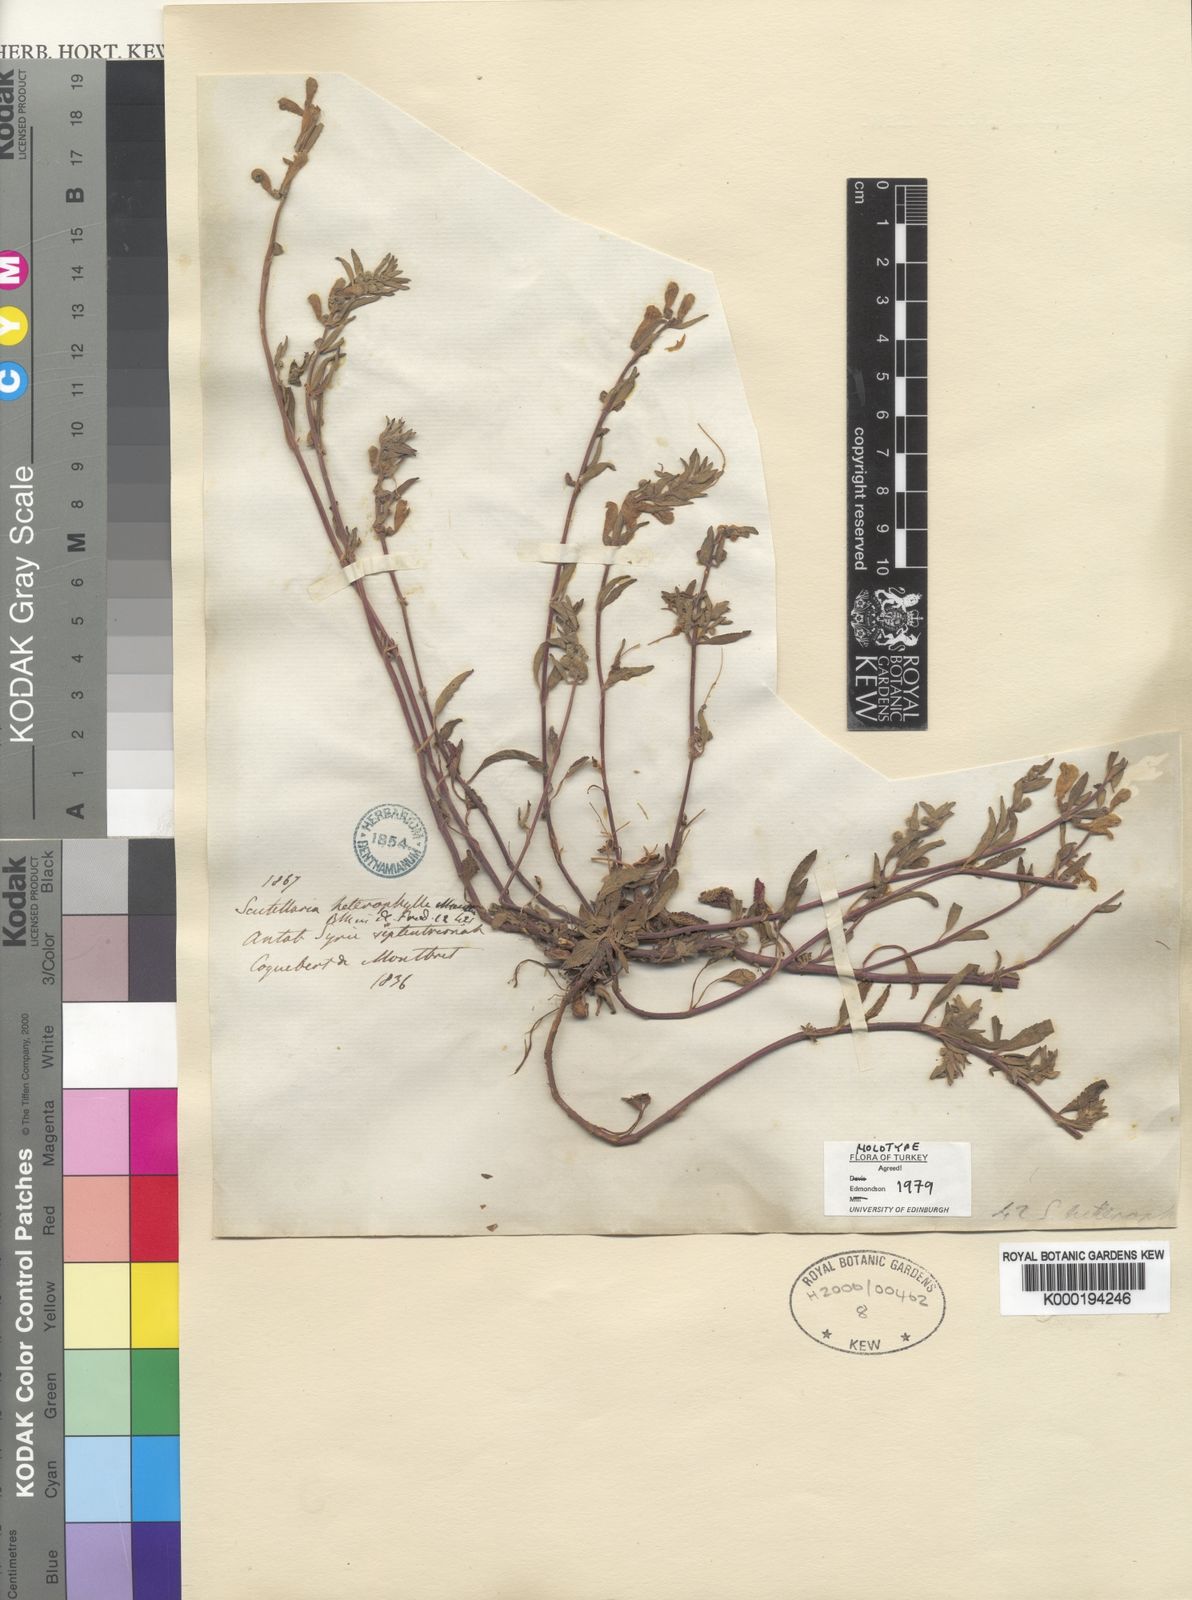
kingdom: Plantae
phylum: Tracheophyta
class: Magnoliopsida
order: Lamiales
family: Lamiaceae
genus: Scutellaria
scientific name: Scutellaria heterophylla
